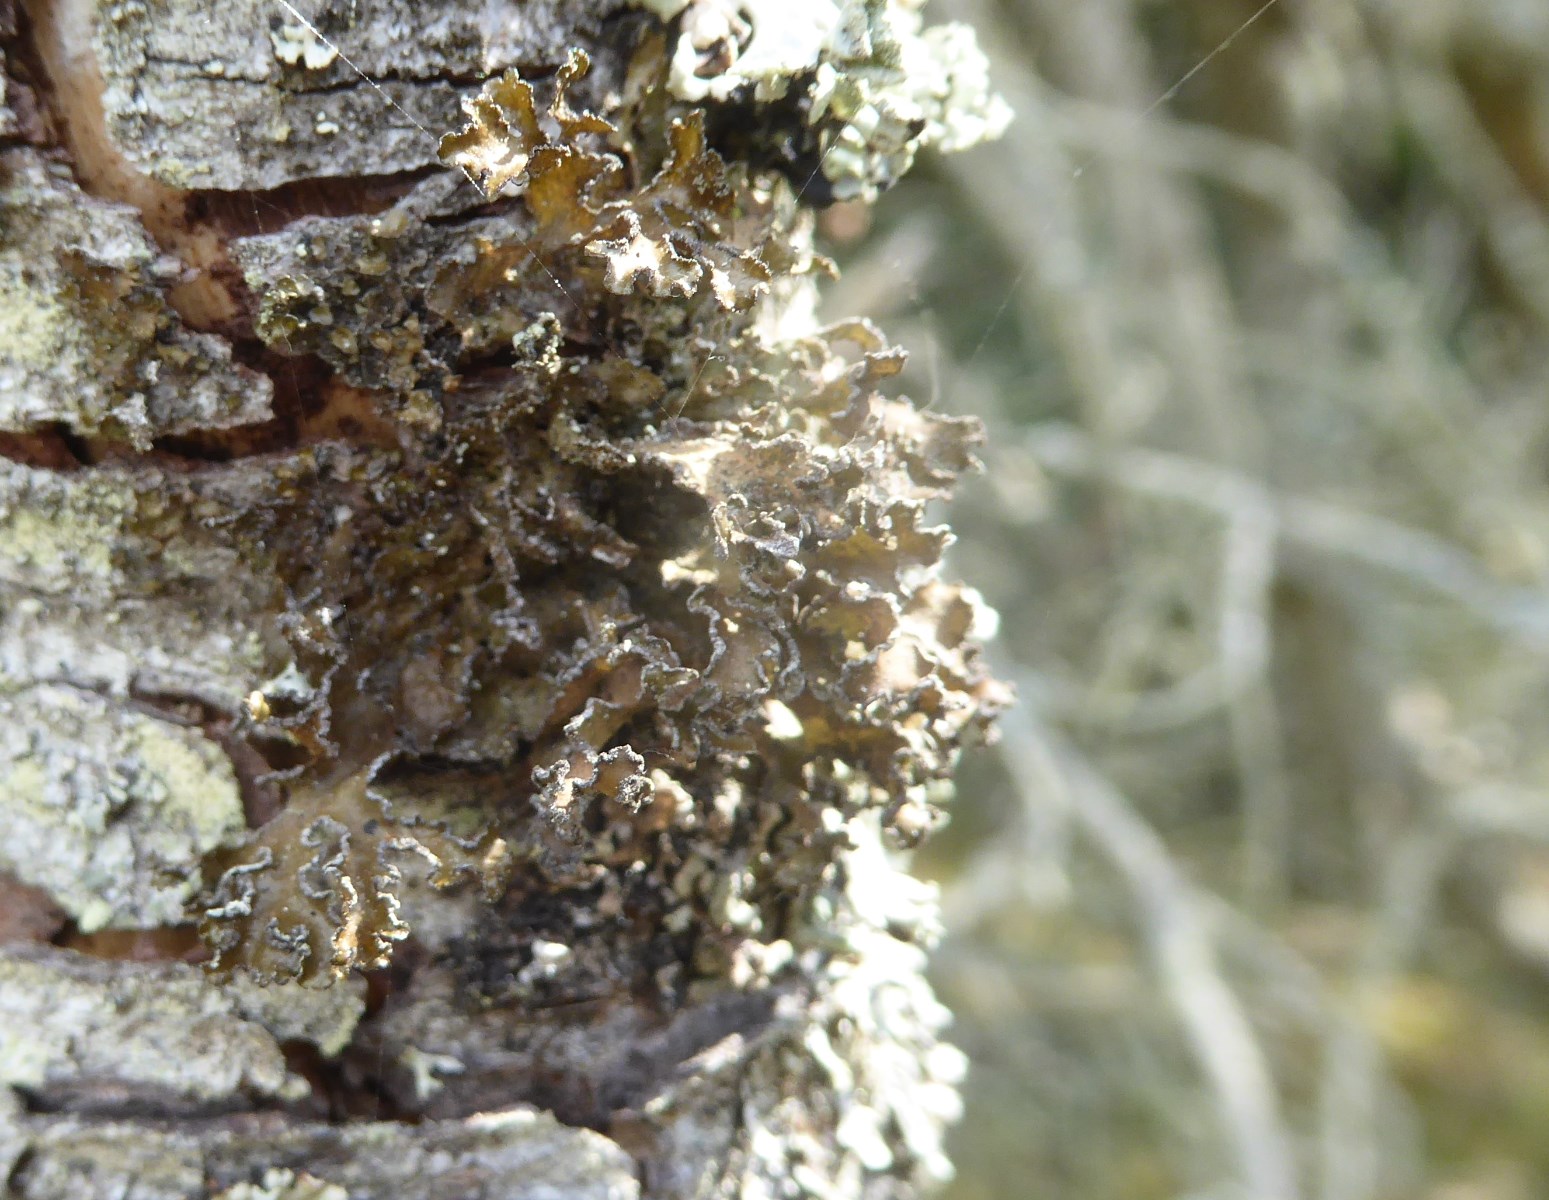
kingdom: Fungi
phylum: Ascomycota
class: Lecanoromycetes
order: Lecanorales
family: Parmeliaceae
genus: Nephromopsis
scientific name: Nephromopsis chlorophylla
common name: olivenbrun kruslav
